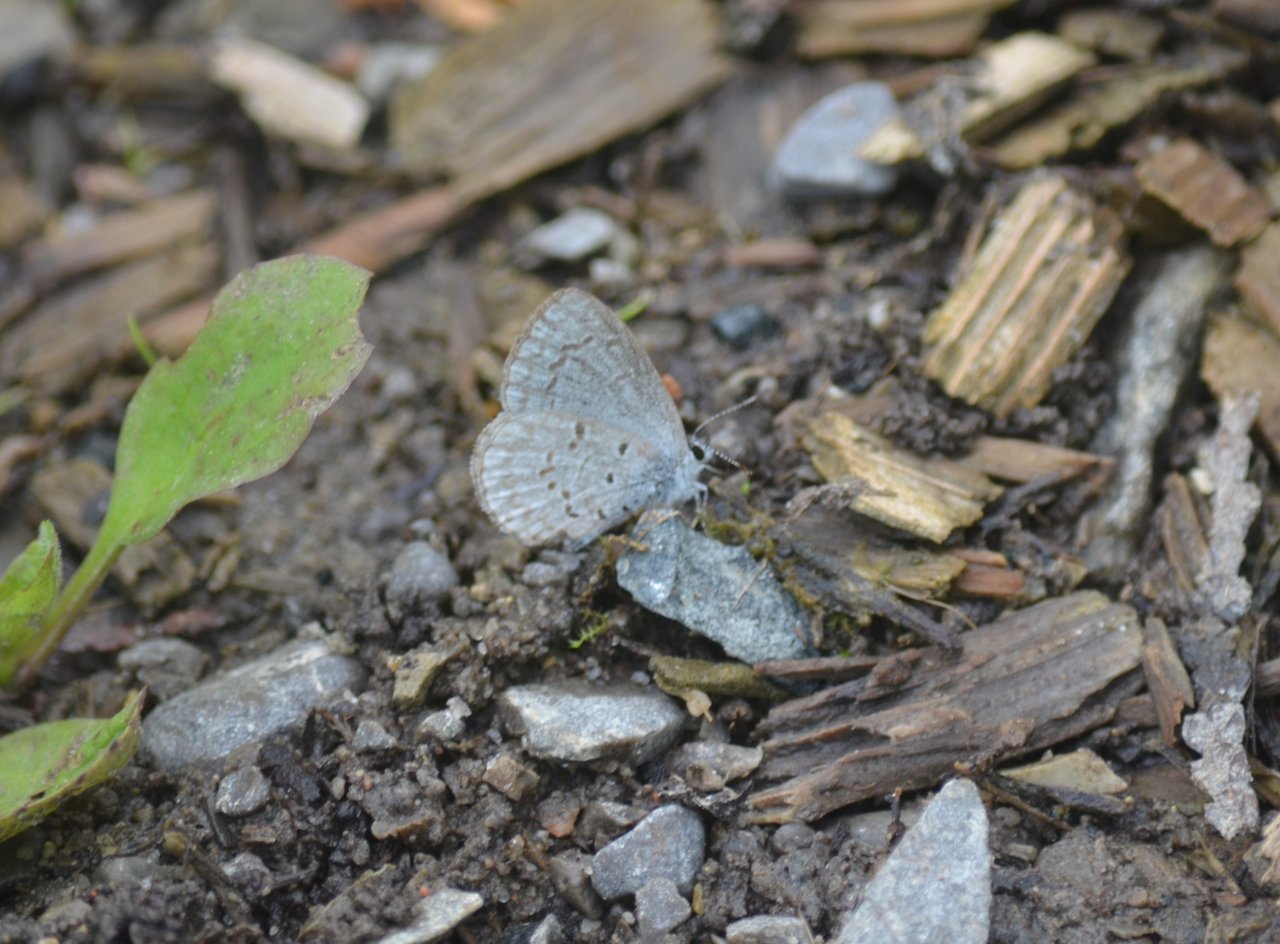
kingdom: Animalia
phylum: Arthropoda
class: Insecta
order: Lepidoptera
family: Lycaenidae
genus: Celastrina
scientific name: Celastrina
